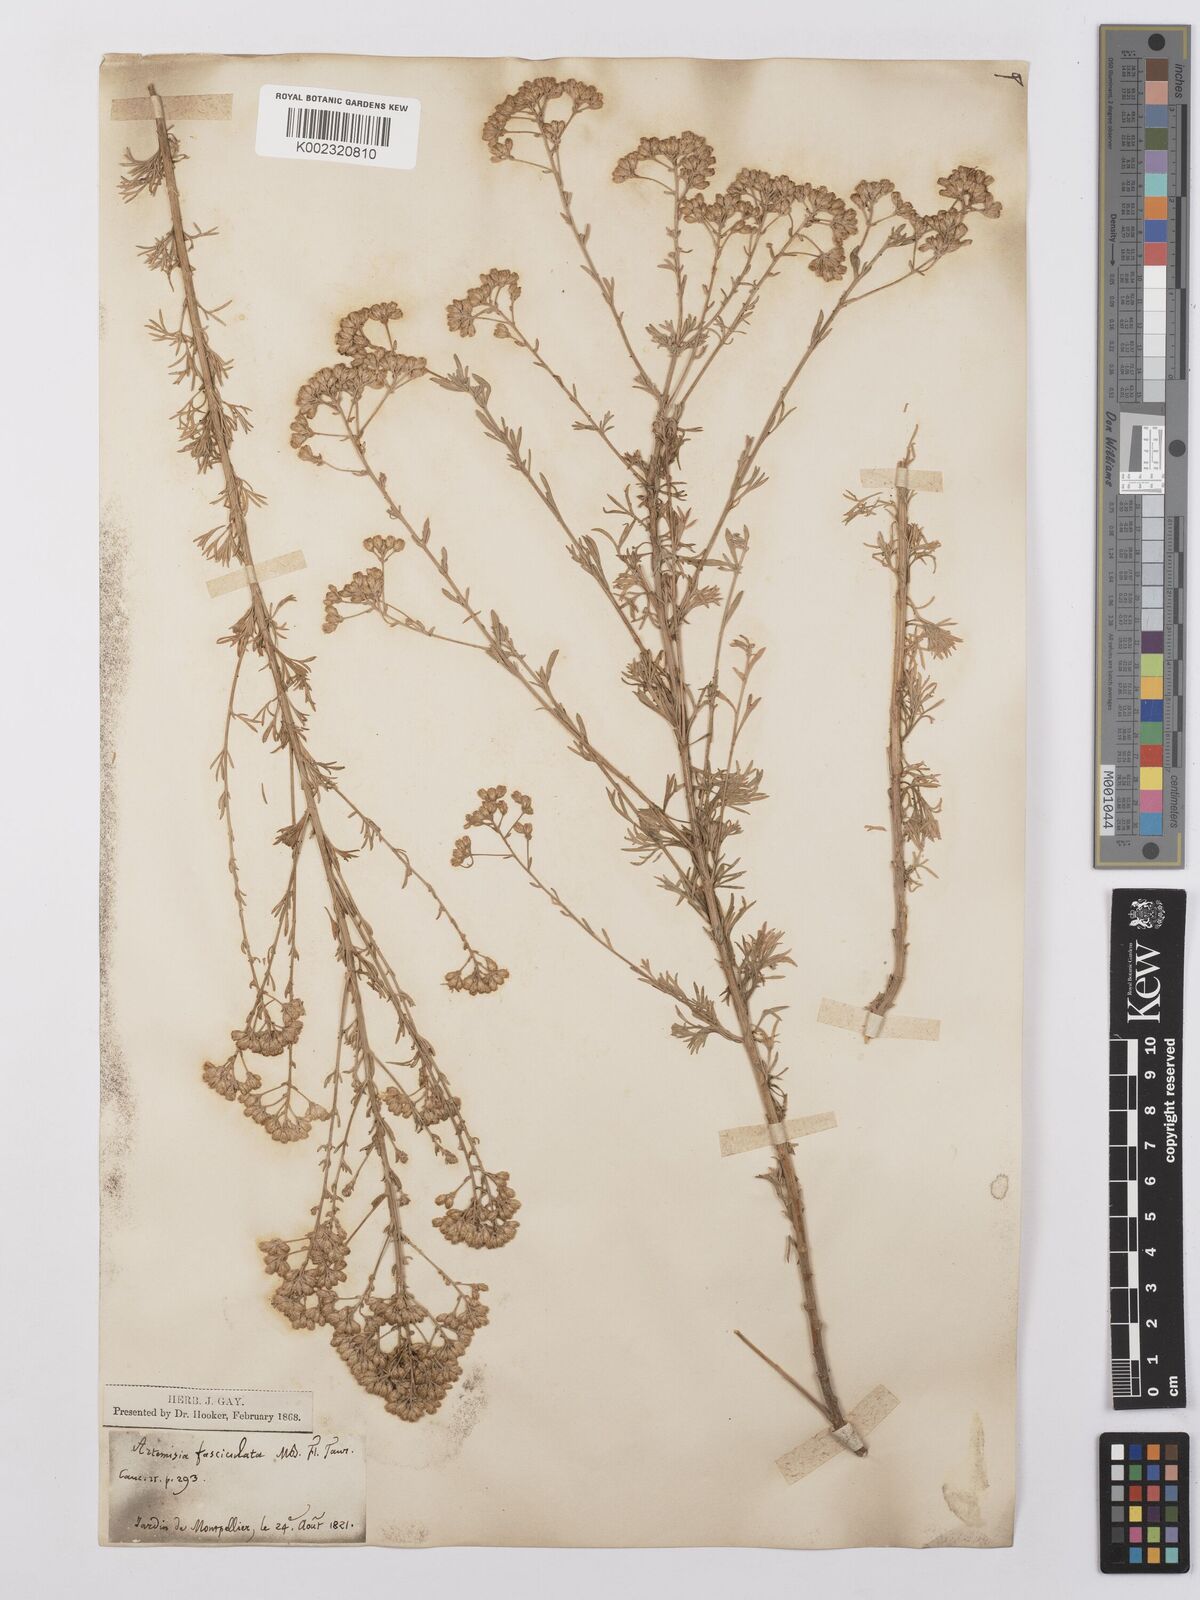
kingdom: Plantae
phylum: Tracheophyta
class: Magnoliopsida
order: Asterales
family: Asteraceae
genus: Artemisia
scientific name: Artemisia incana
